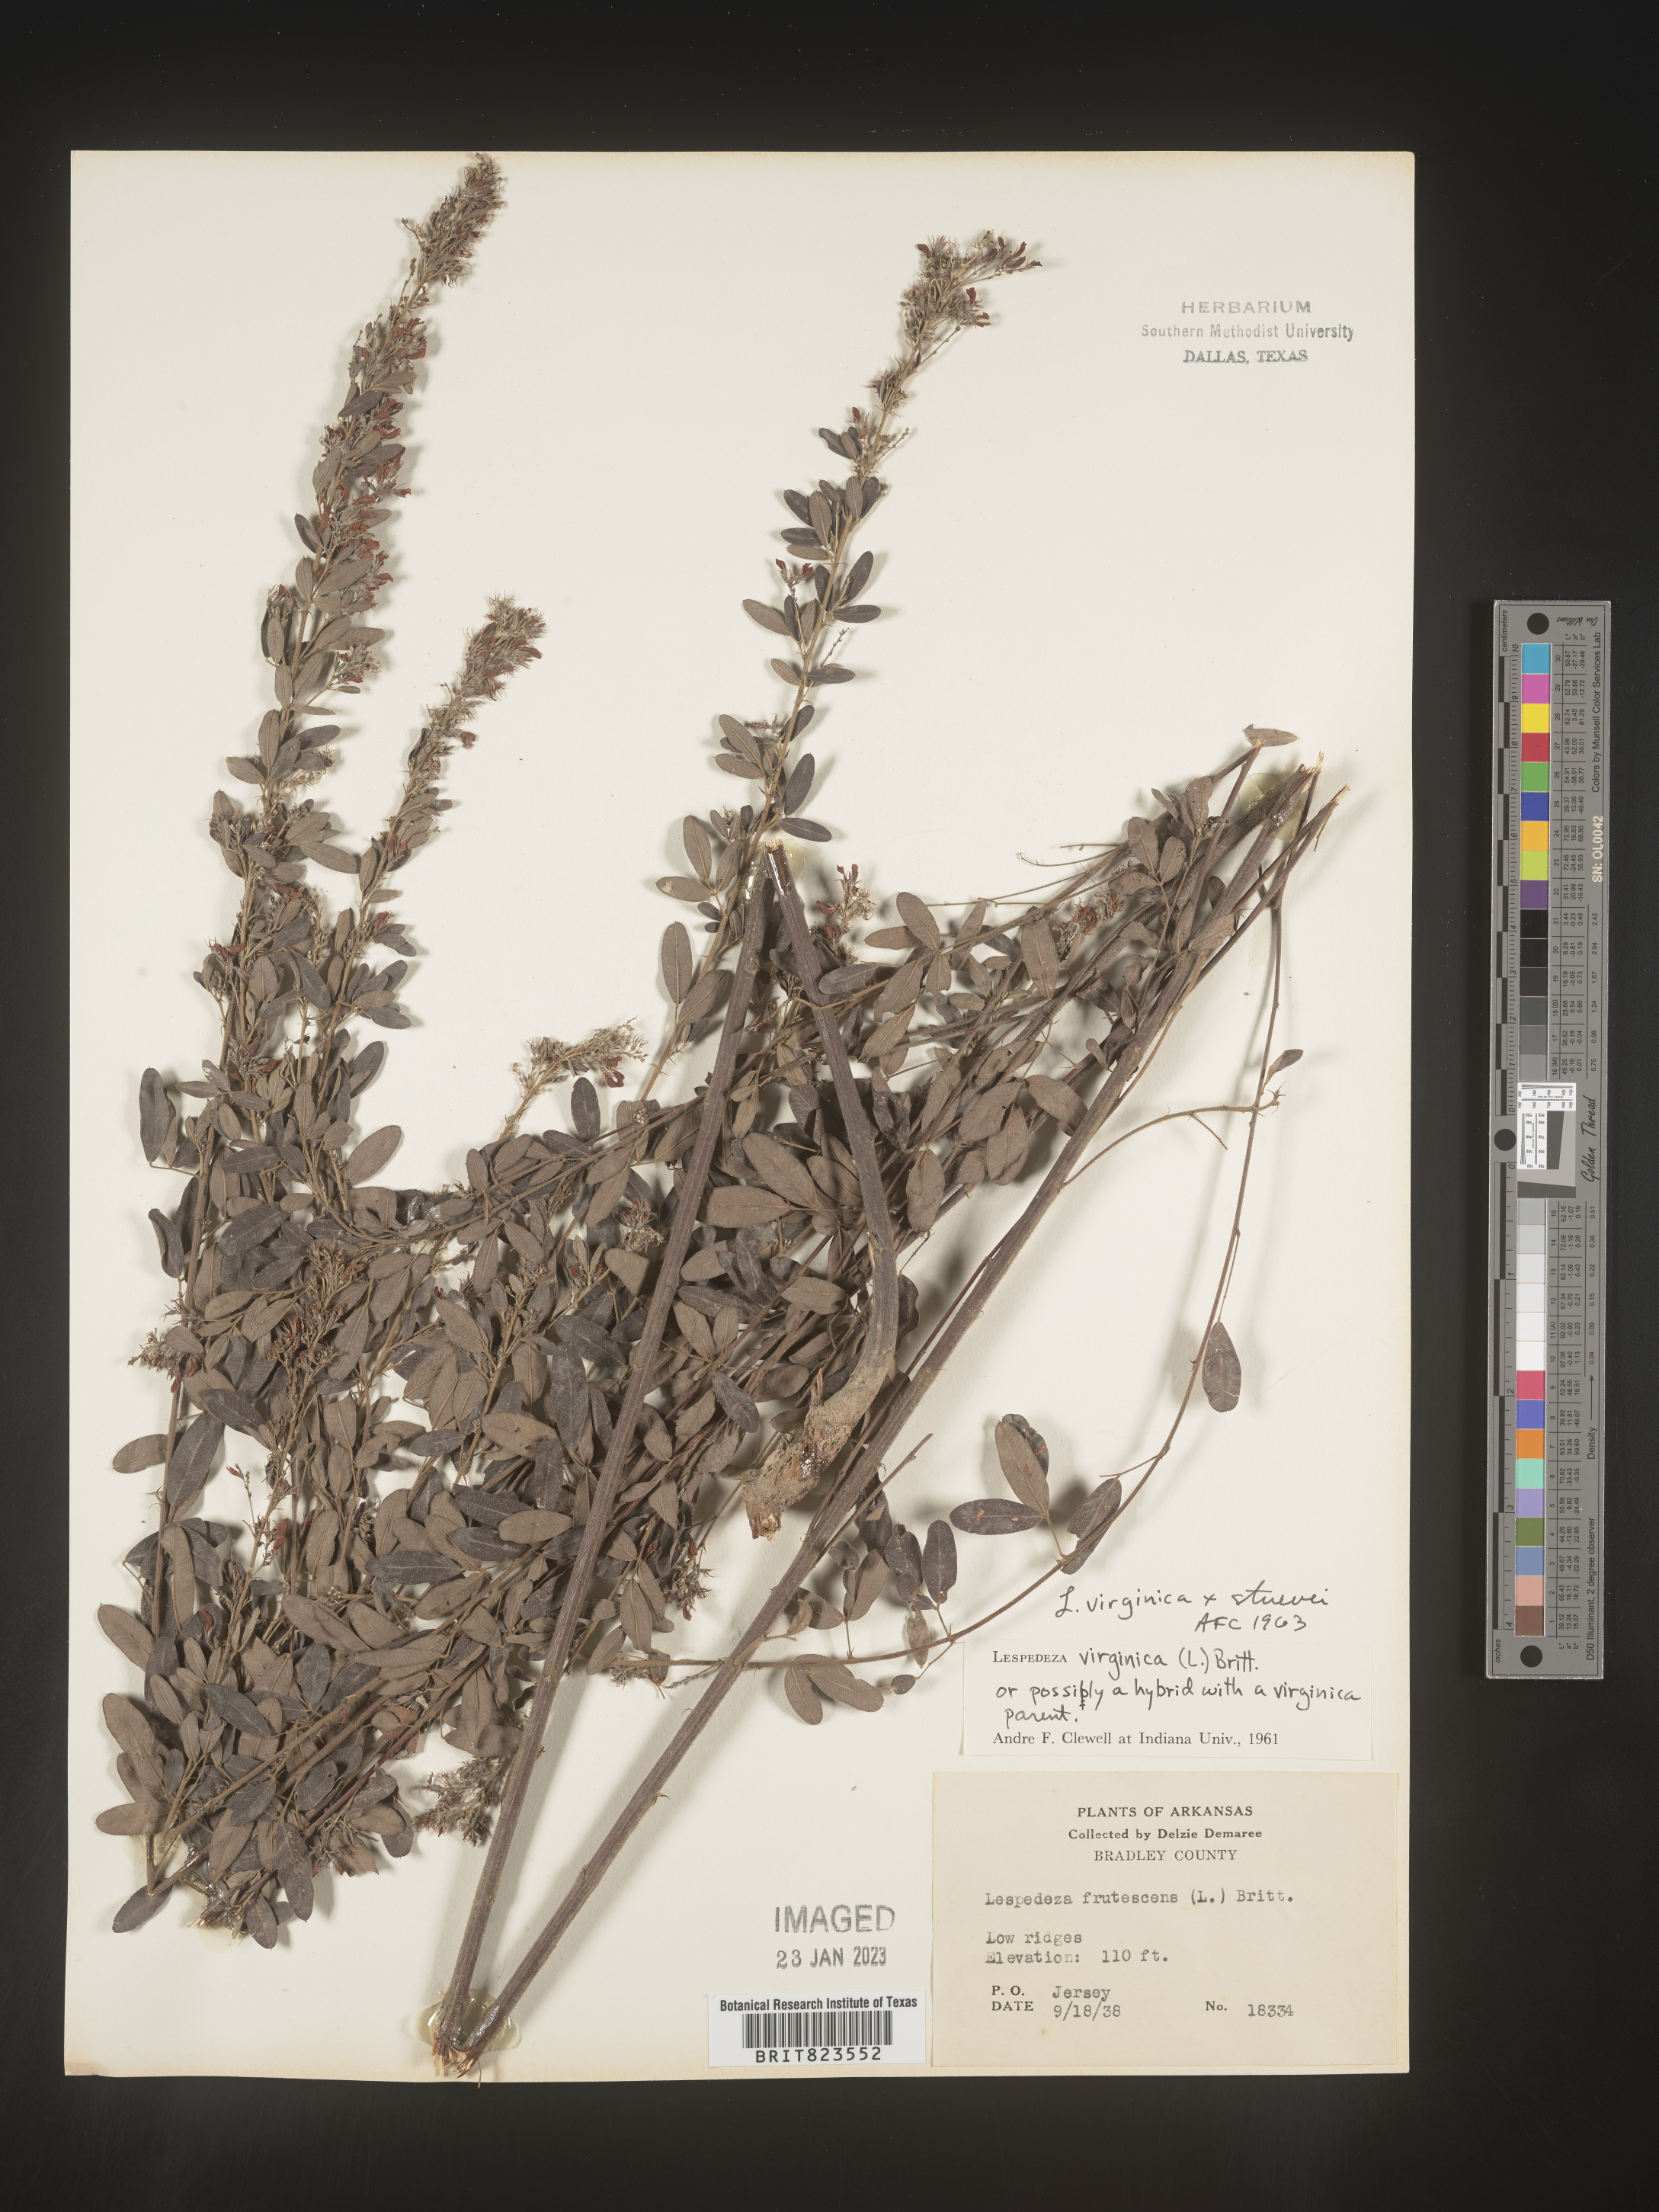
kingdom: Plantae
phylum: Tracheophyta
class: Magnoliopsida
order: Fabales
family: Fabaceae
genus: Lespedeza
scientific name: Lespedeza virginica
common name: Slender bush-clover
